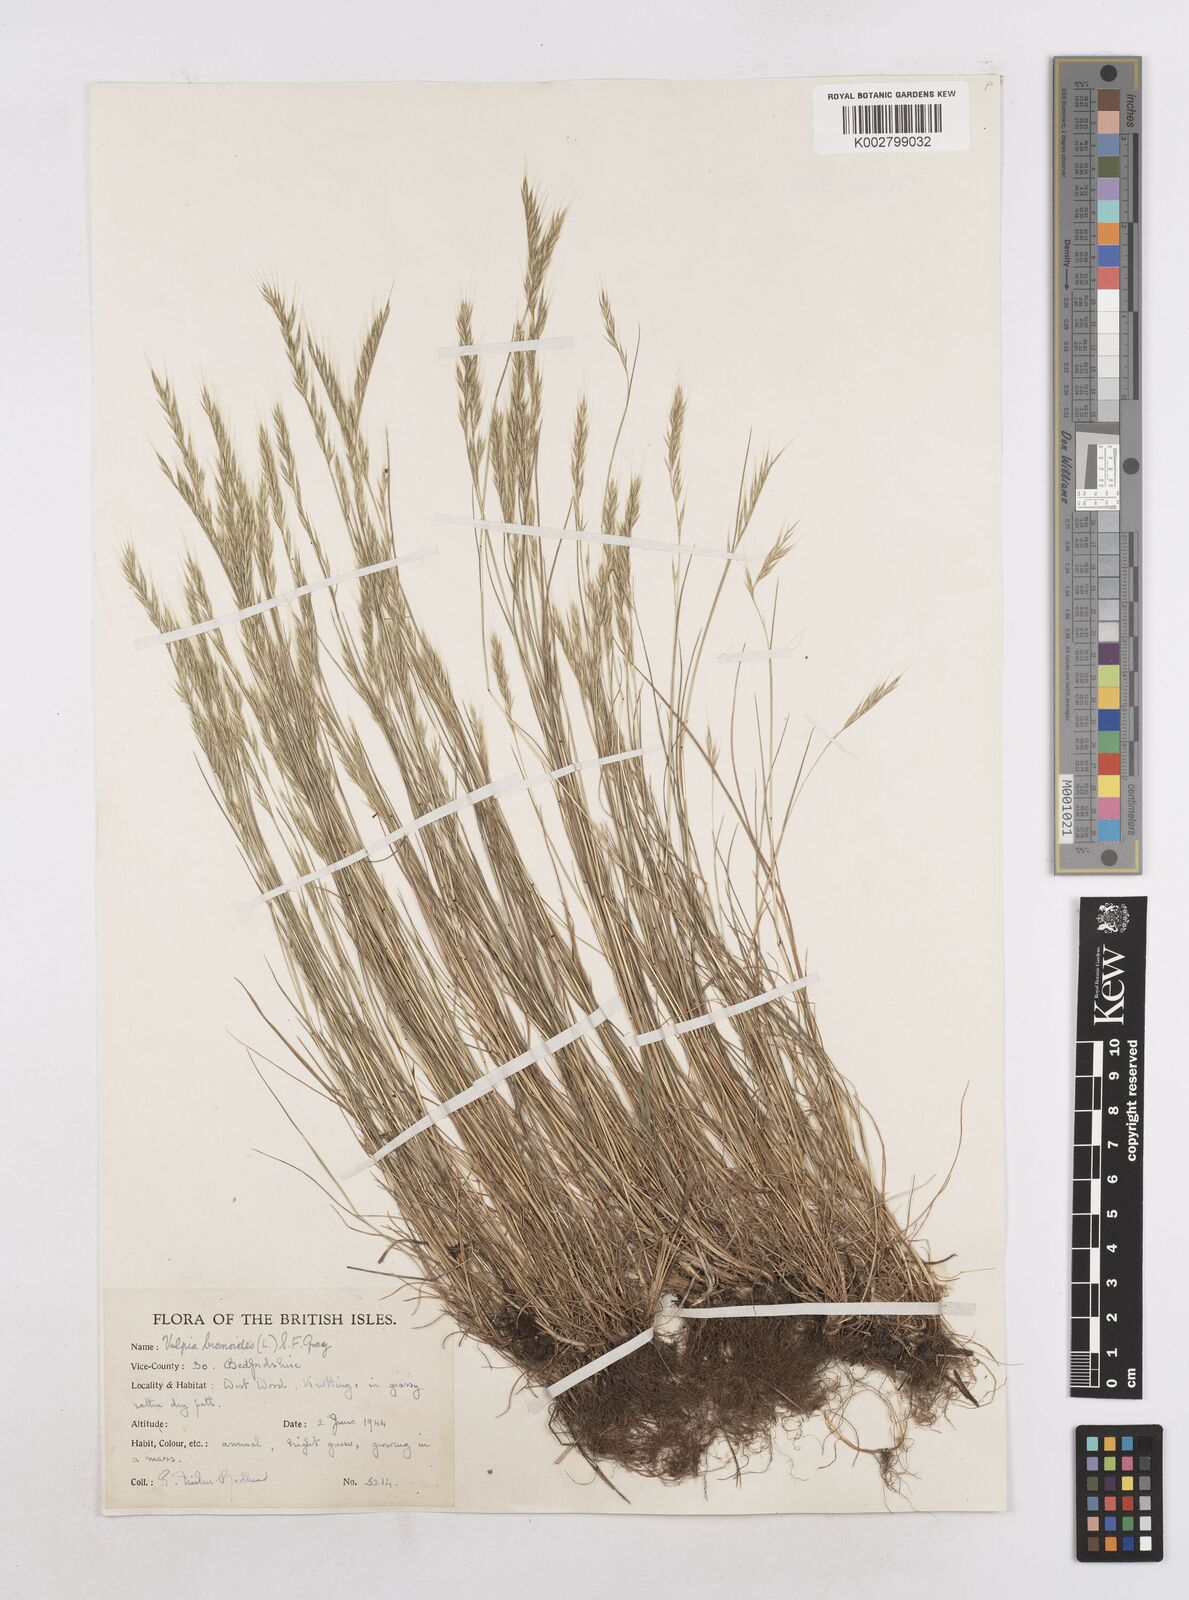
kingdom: Plantae
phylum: Tracheophyta
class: Liliopsida
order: Poales
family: Poaceae
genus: Festuca
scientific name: Festuca bromoides
